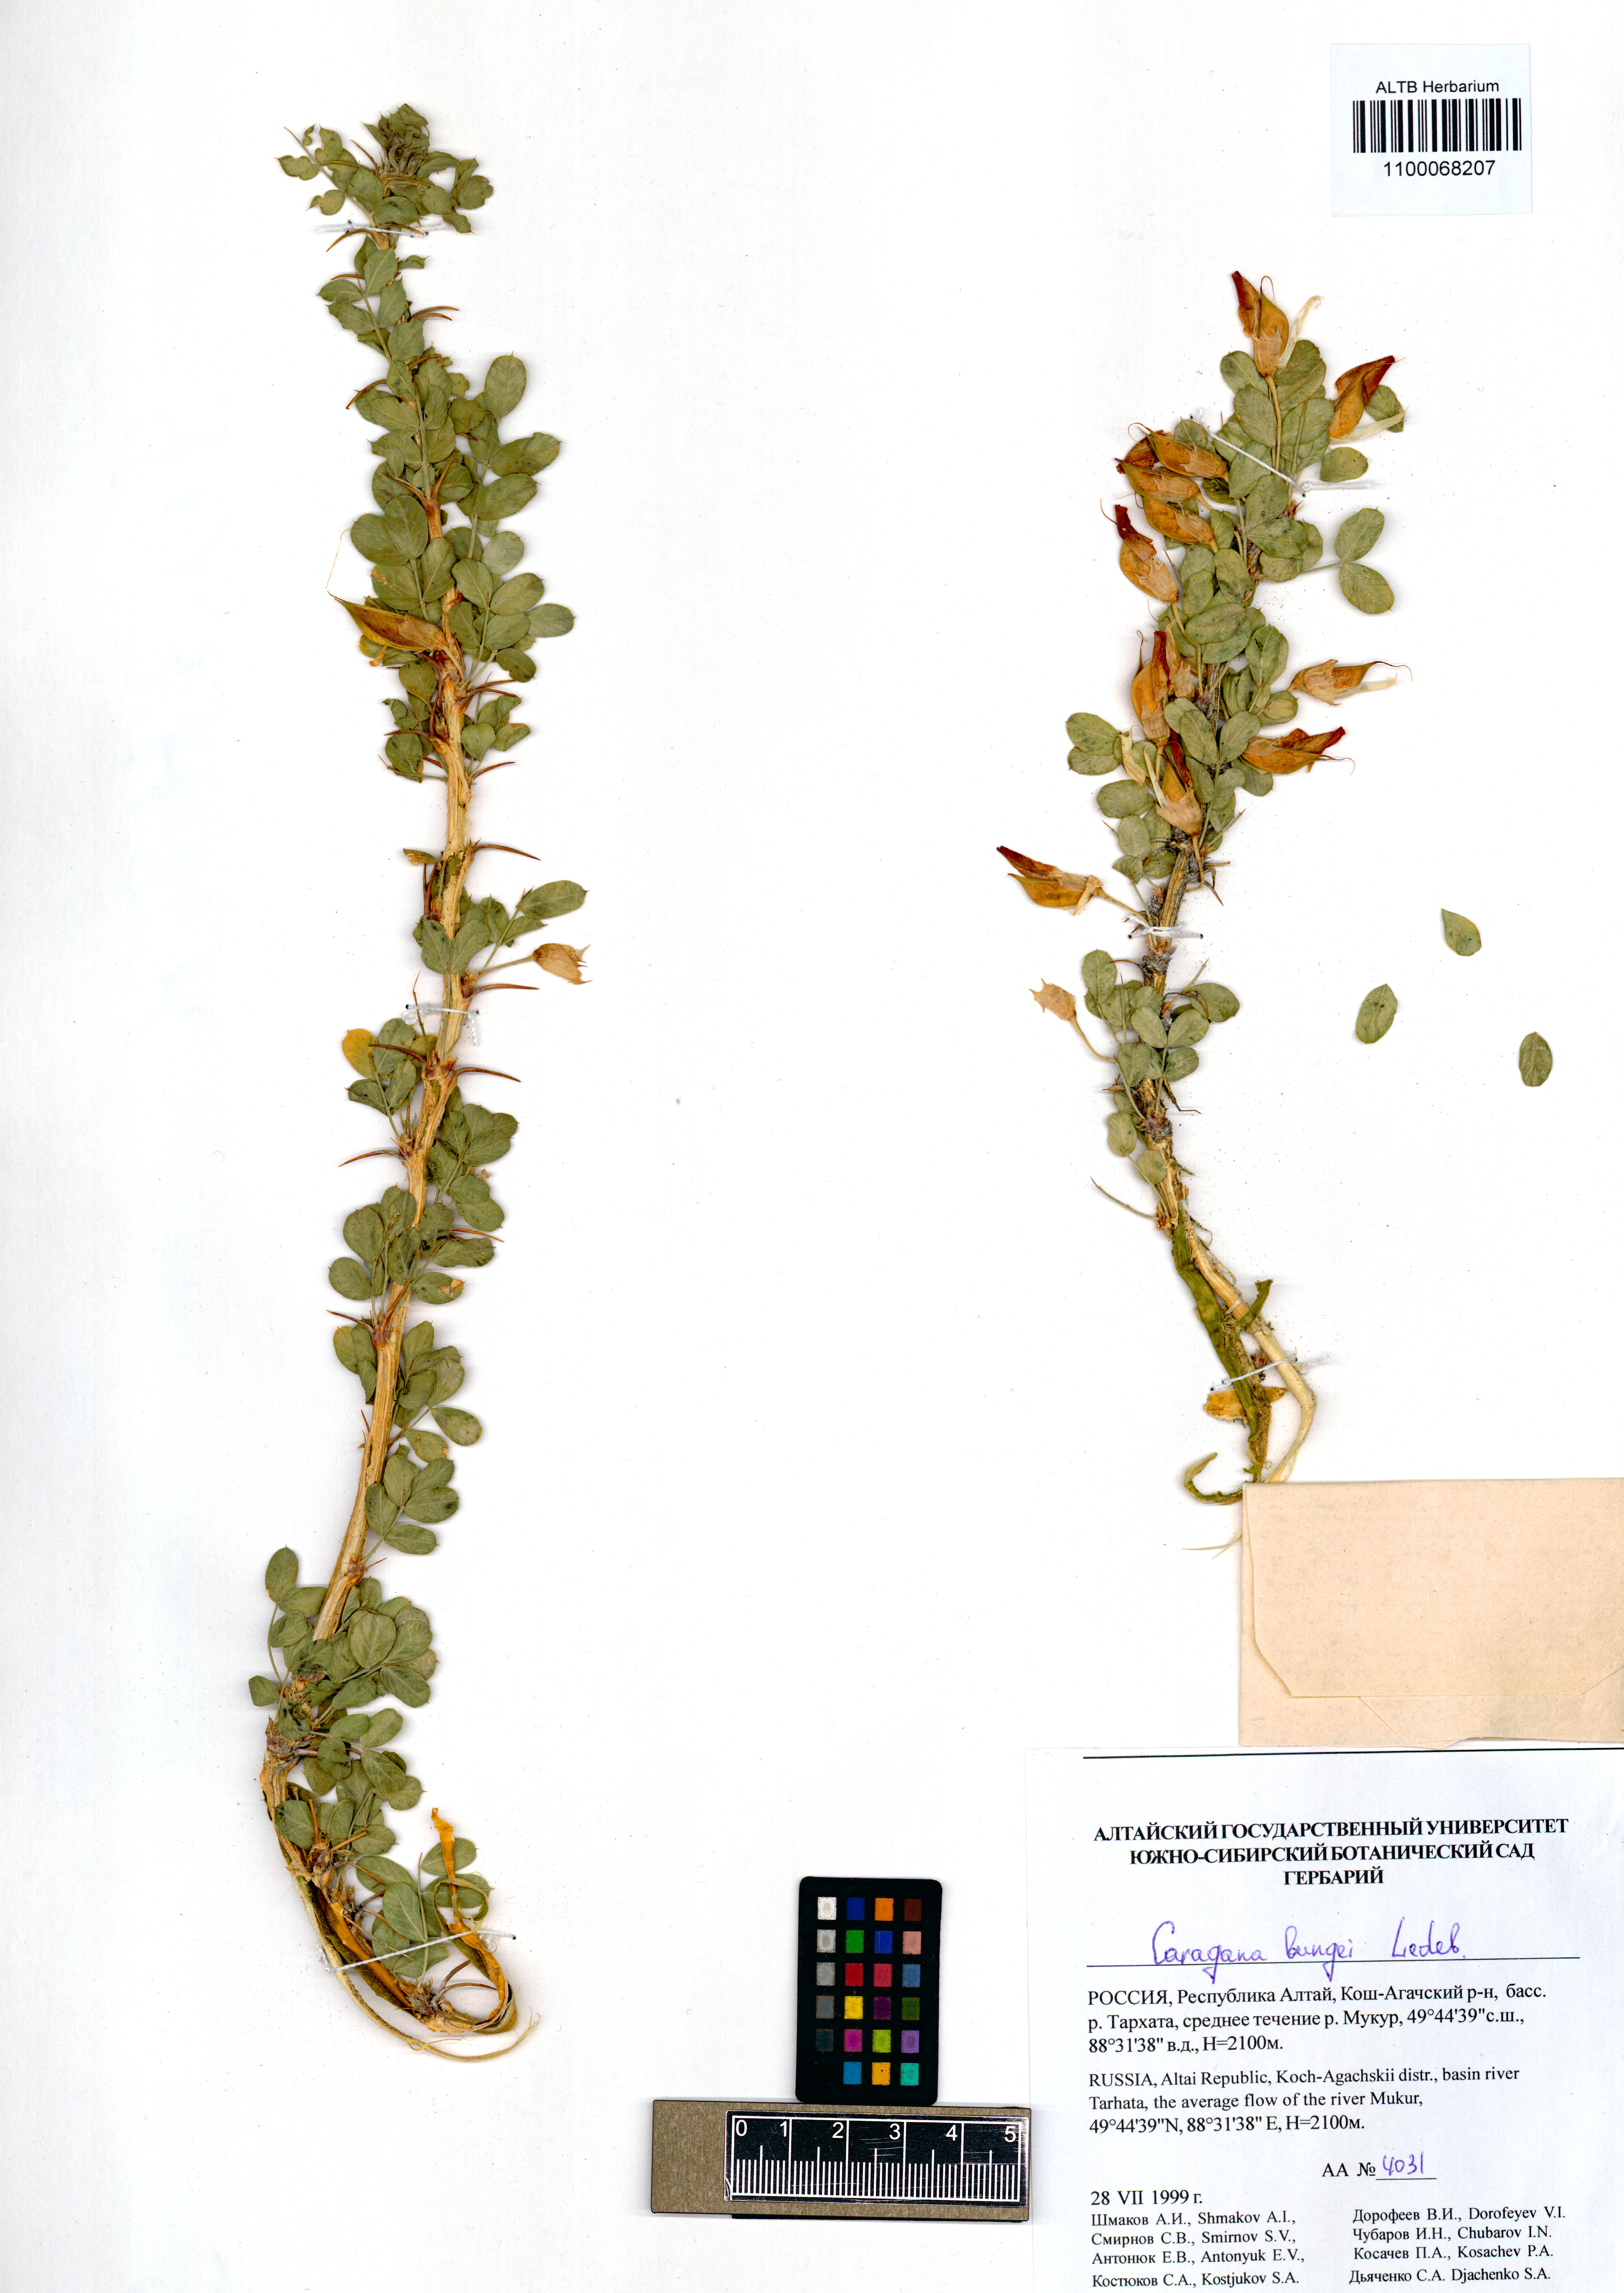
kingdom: Plantae
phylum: Tracheophyta
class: Magnoliopsida
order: Fabales
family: Fabaceae
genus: Caragana
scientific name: Caragana bungei
